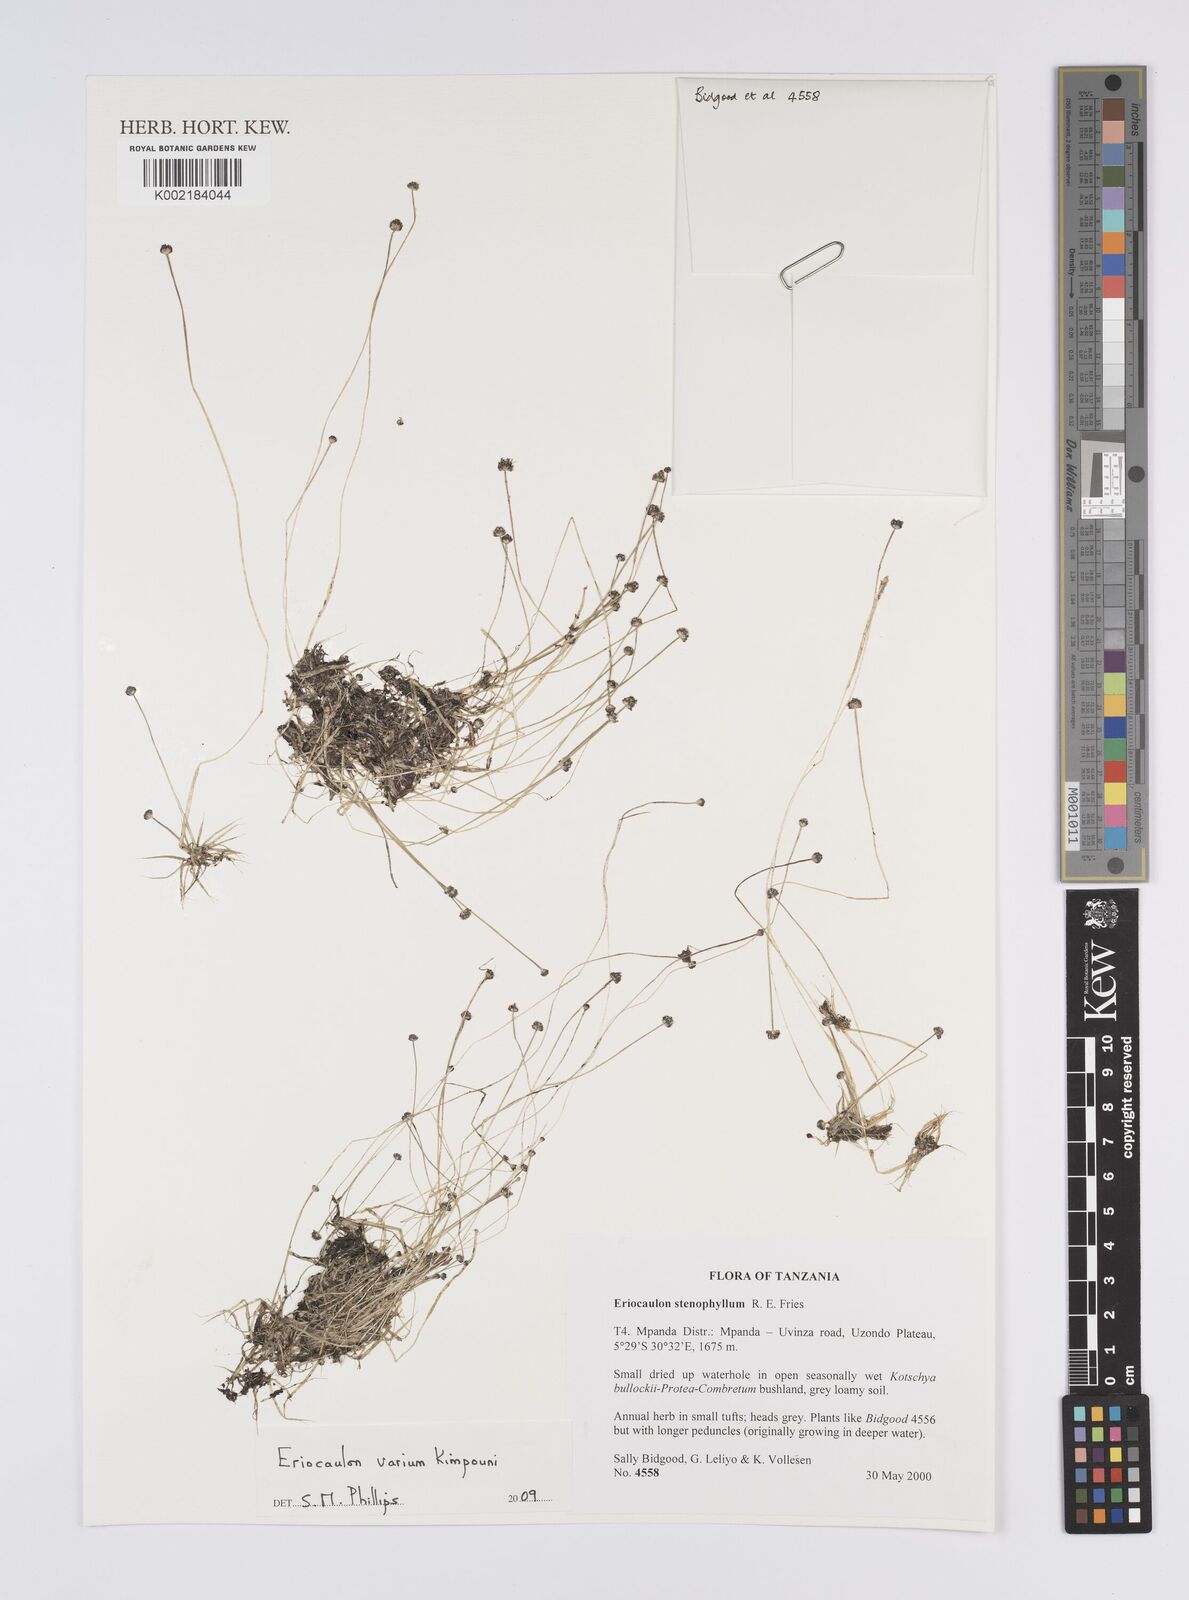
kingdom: Plantae
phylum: Tracheophyta
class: Liliopsida
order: Poales
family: Eriocaulaceae
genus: Eriocaulon
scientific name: Eriocaulon varium
